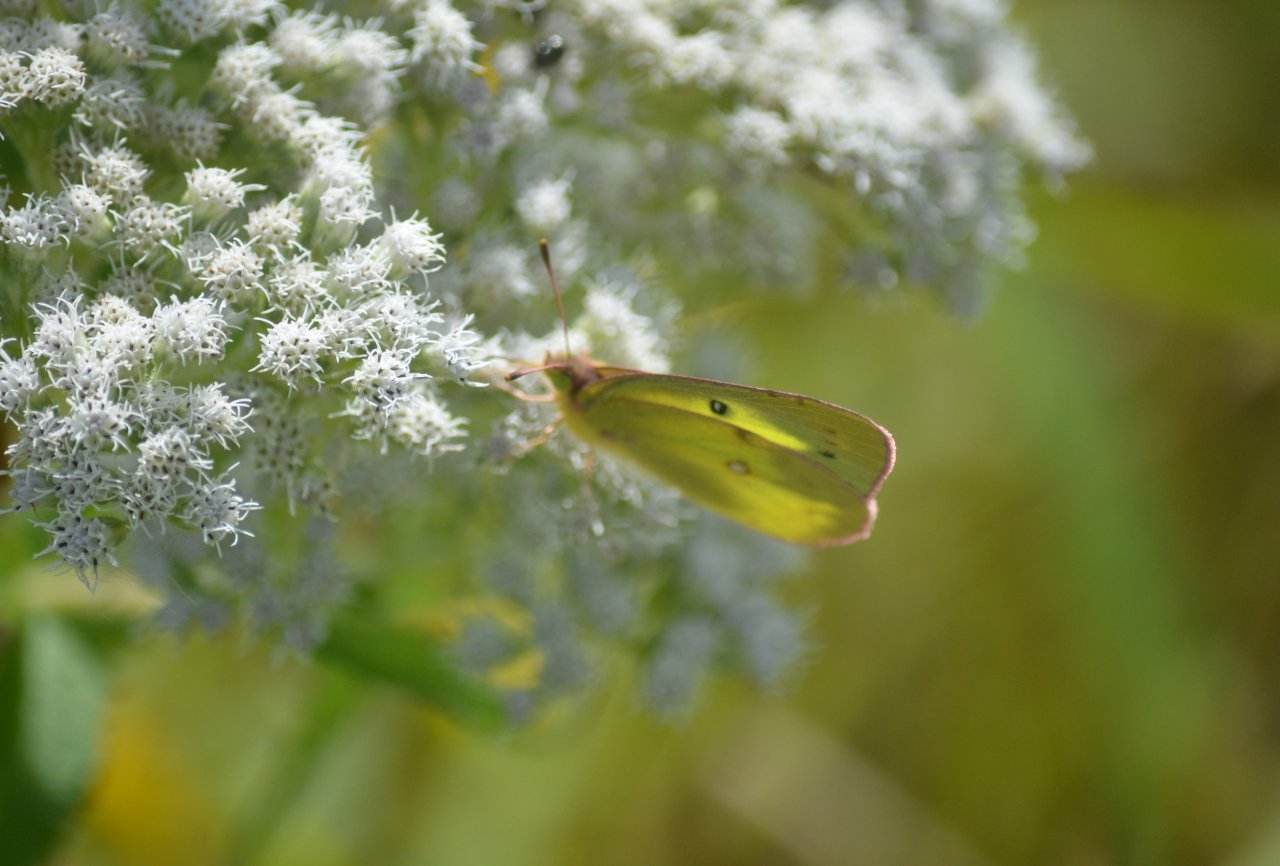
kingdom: Animalia
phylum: Arthropoda
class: Insecta
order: Lepidoptera
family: Pieridae
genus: Colias
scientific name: Colias philodice
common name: Clouded Sulphur
